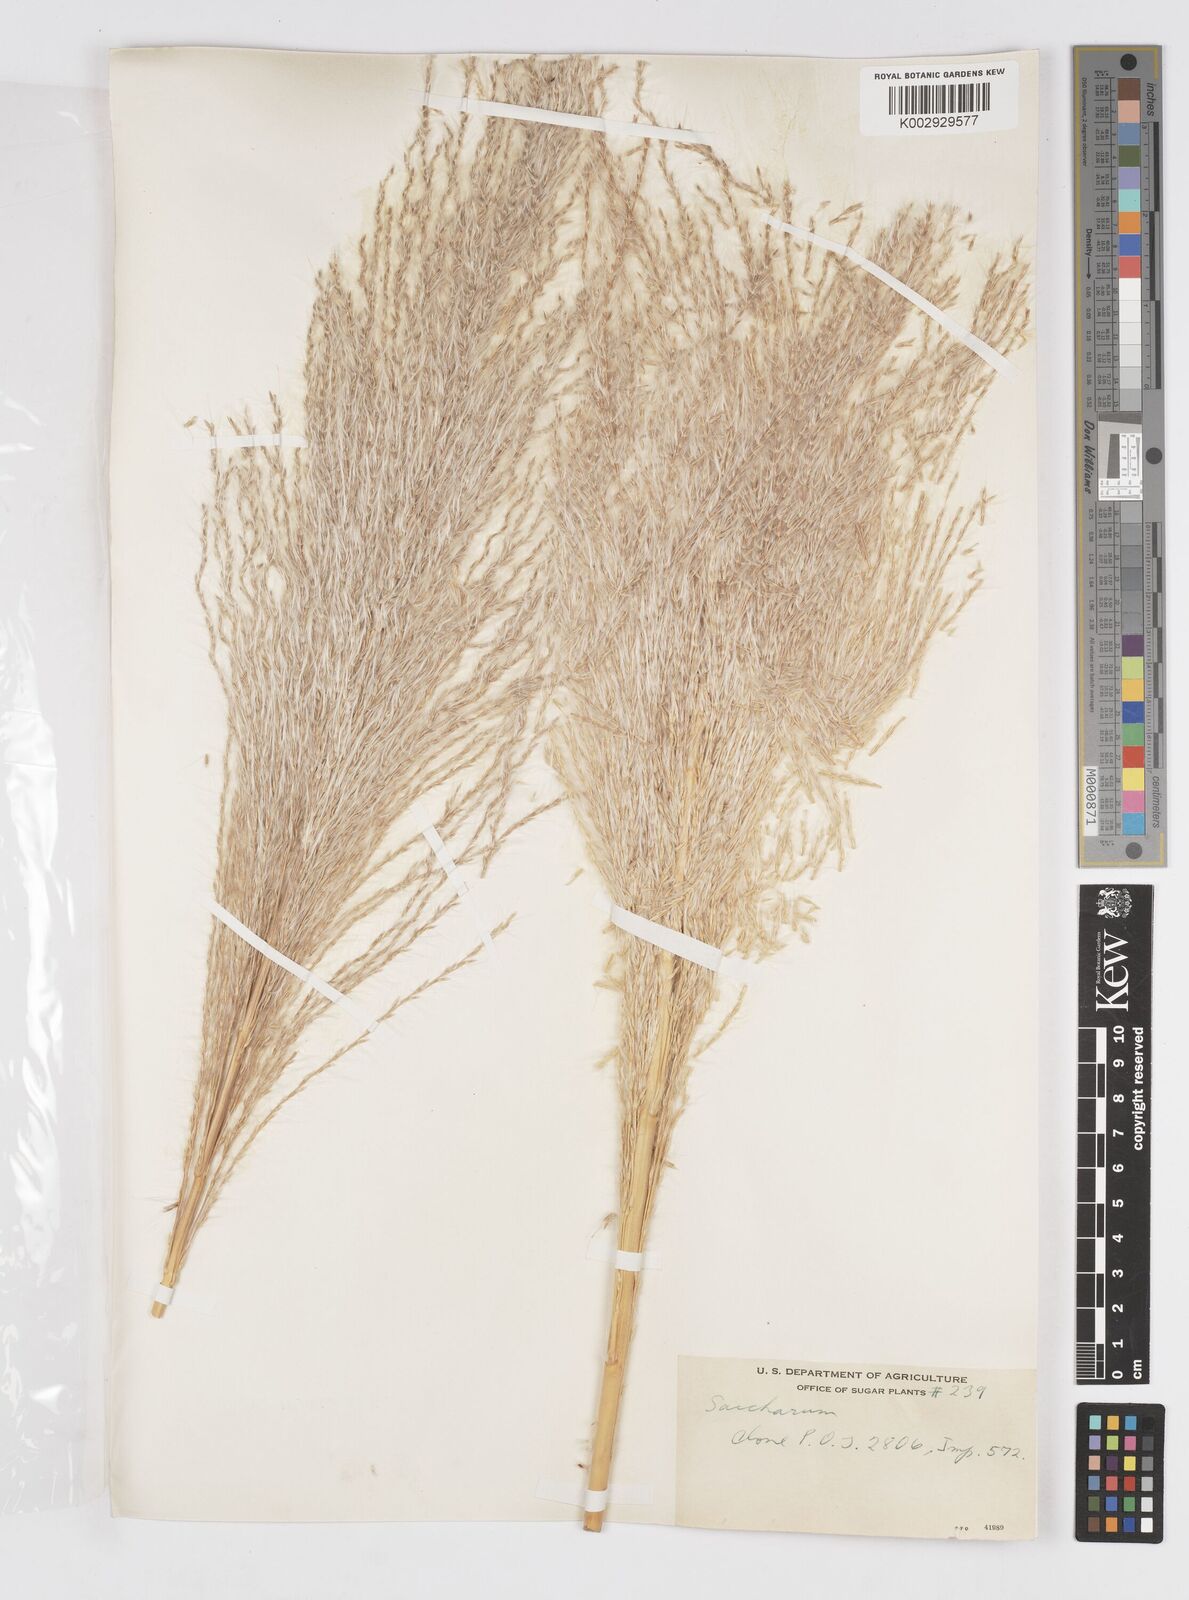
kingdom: Plantae
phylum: Tracheophyta
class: Liliopsida
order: Poales
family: Poaceae
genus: Saccharum
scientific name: Saccharum officinarum
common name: Sugarcane
